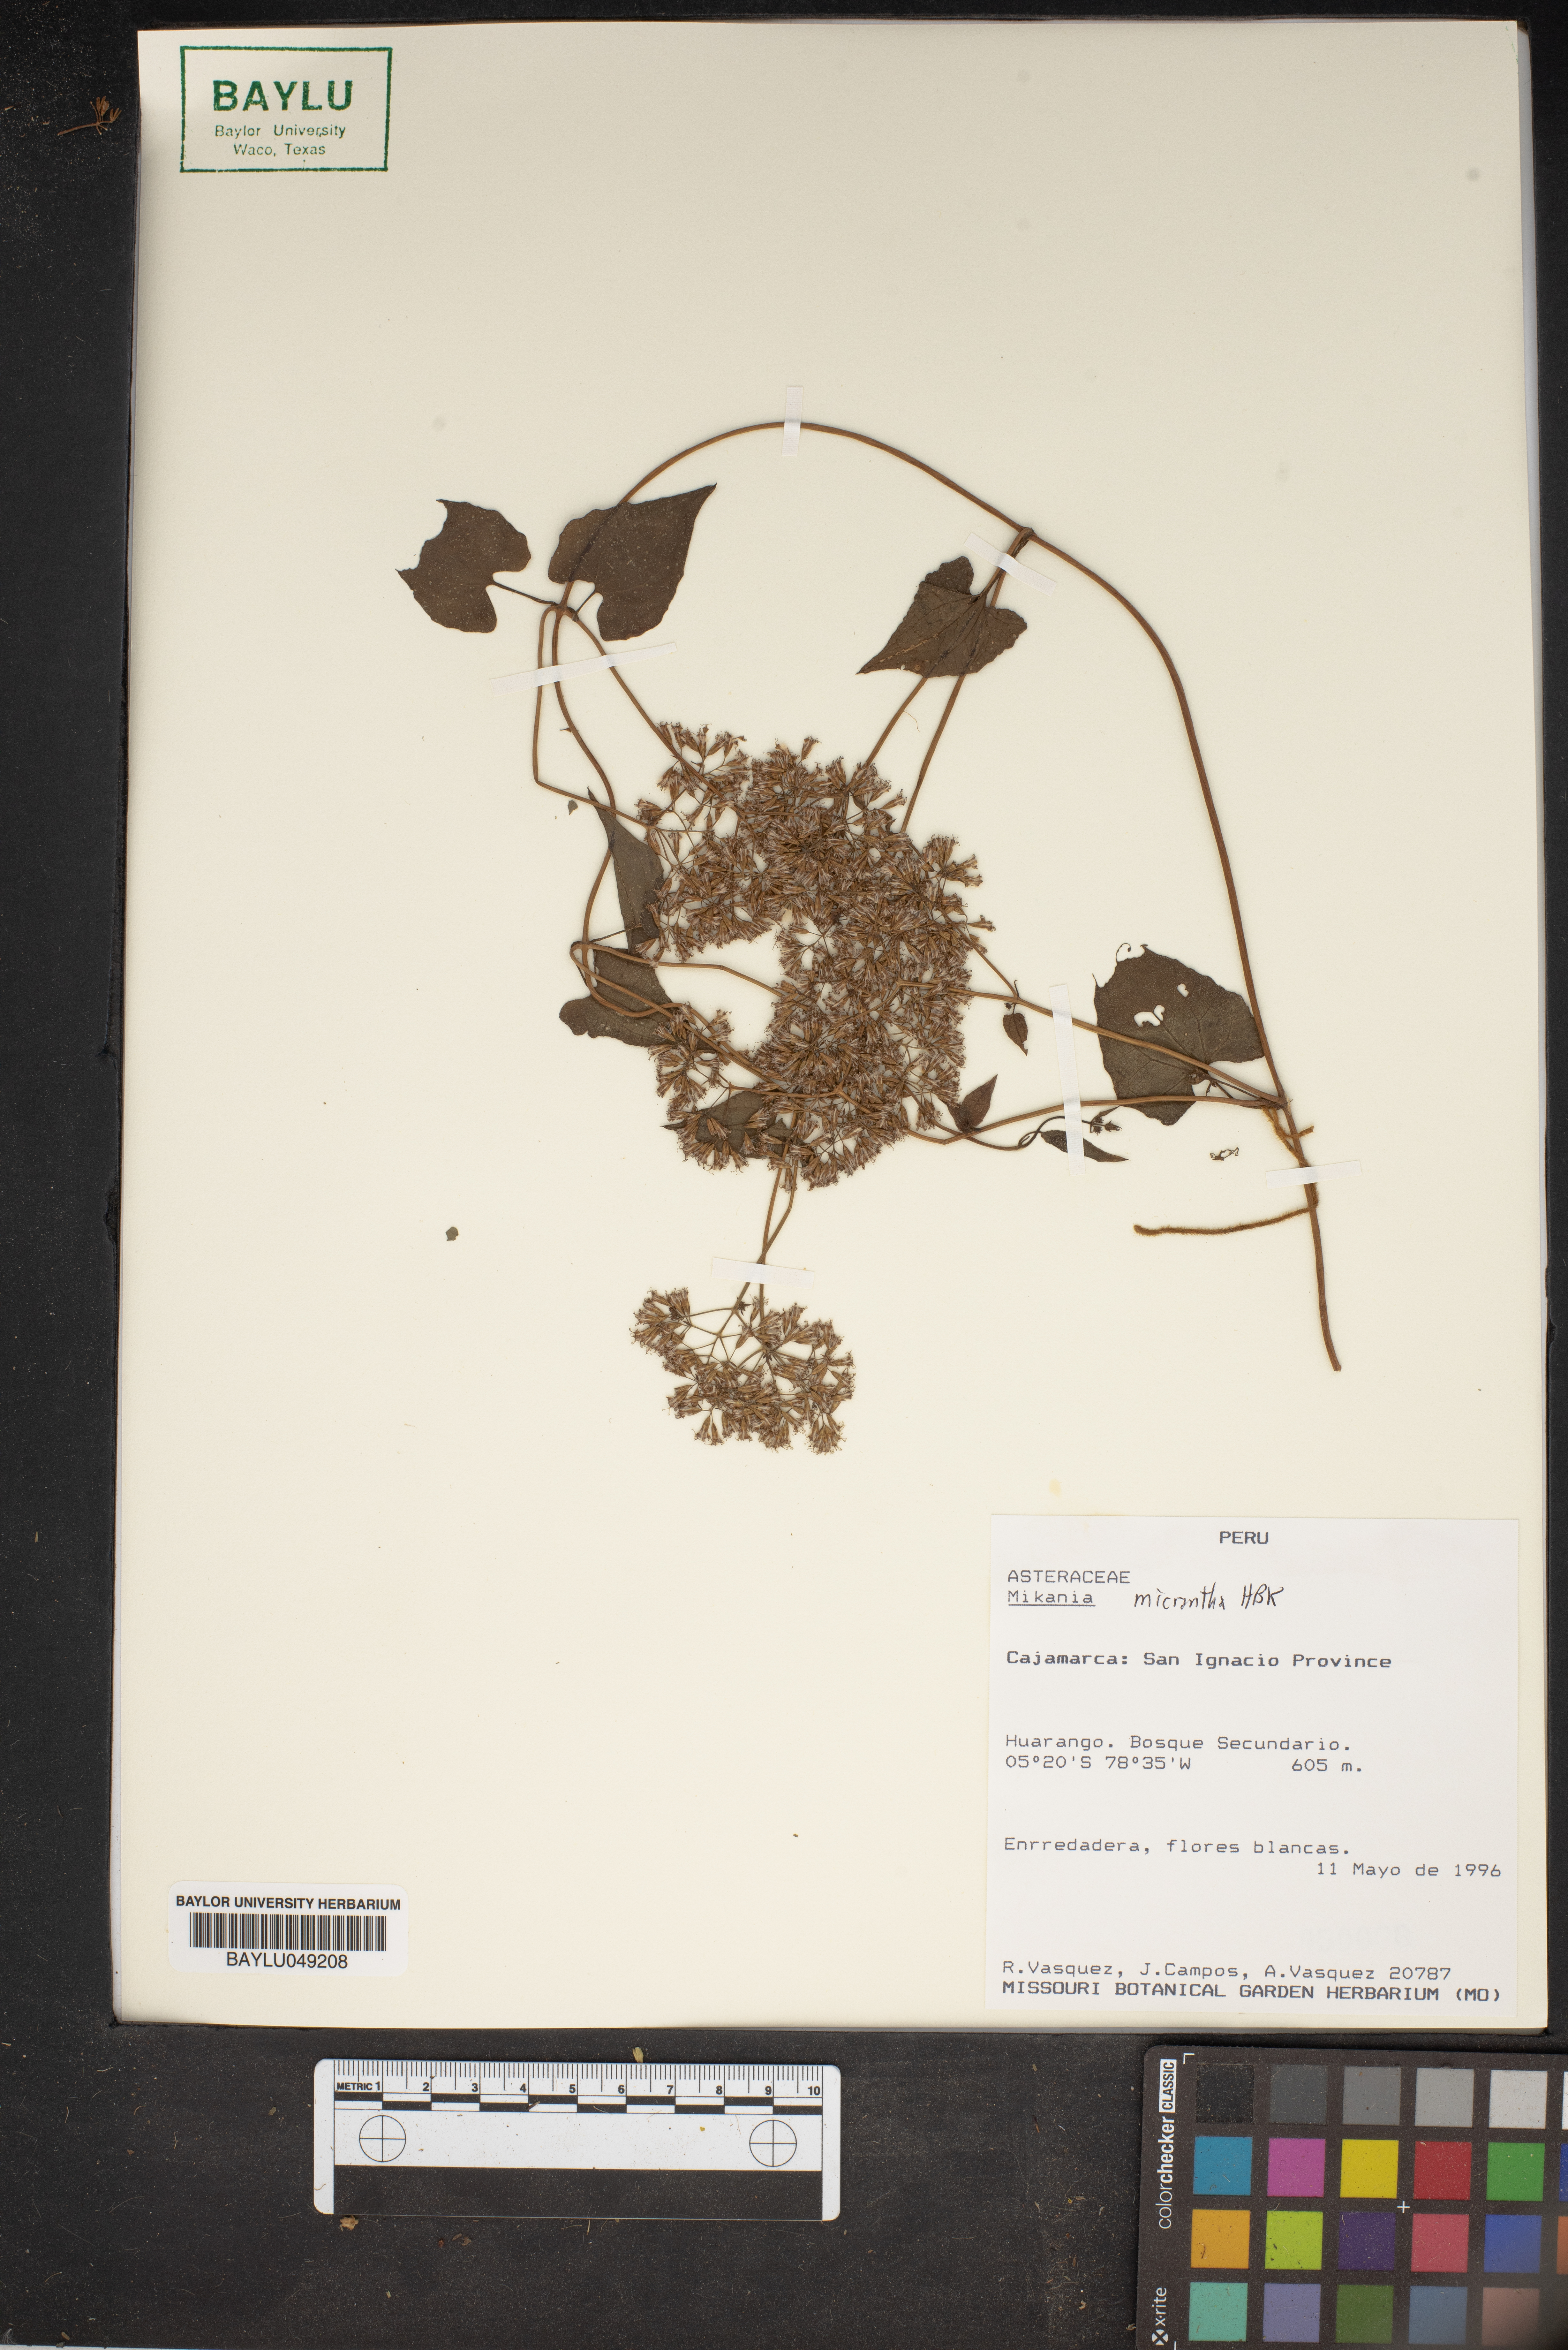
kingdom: Plantae
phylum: Tracheophyta
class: Magnoliopsida
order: Asterales
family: Asteraceae
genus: Mikania
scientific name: Mikania micrantha
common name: Mile-a-minute
